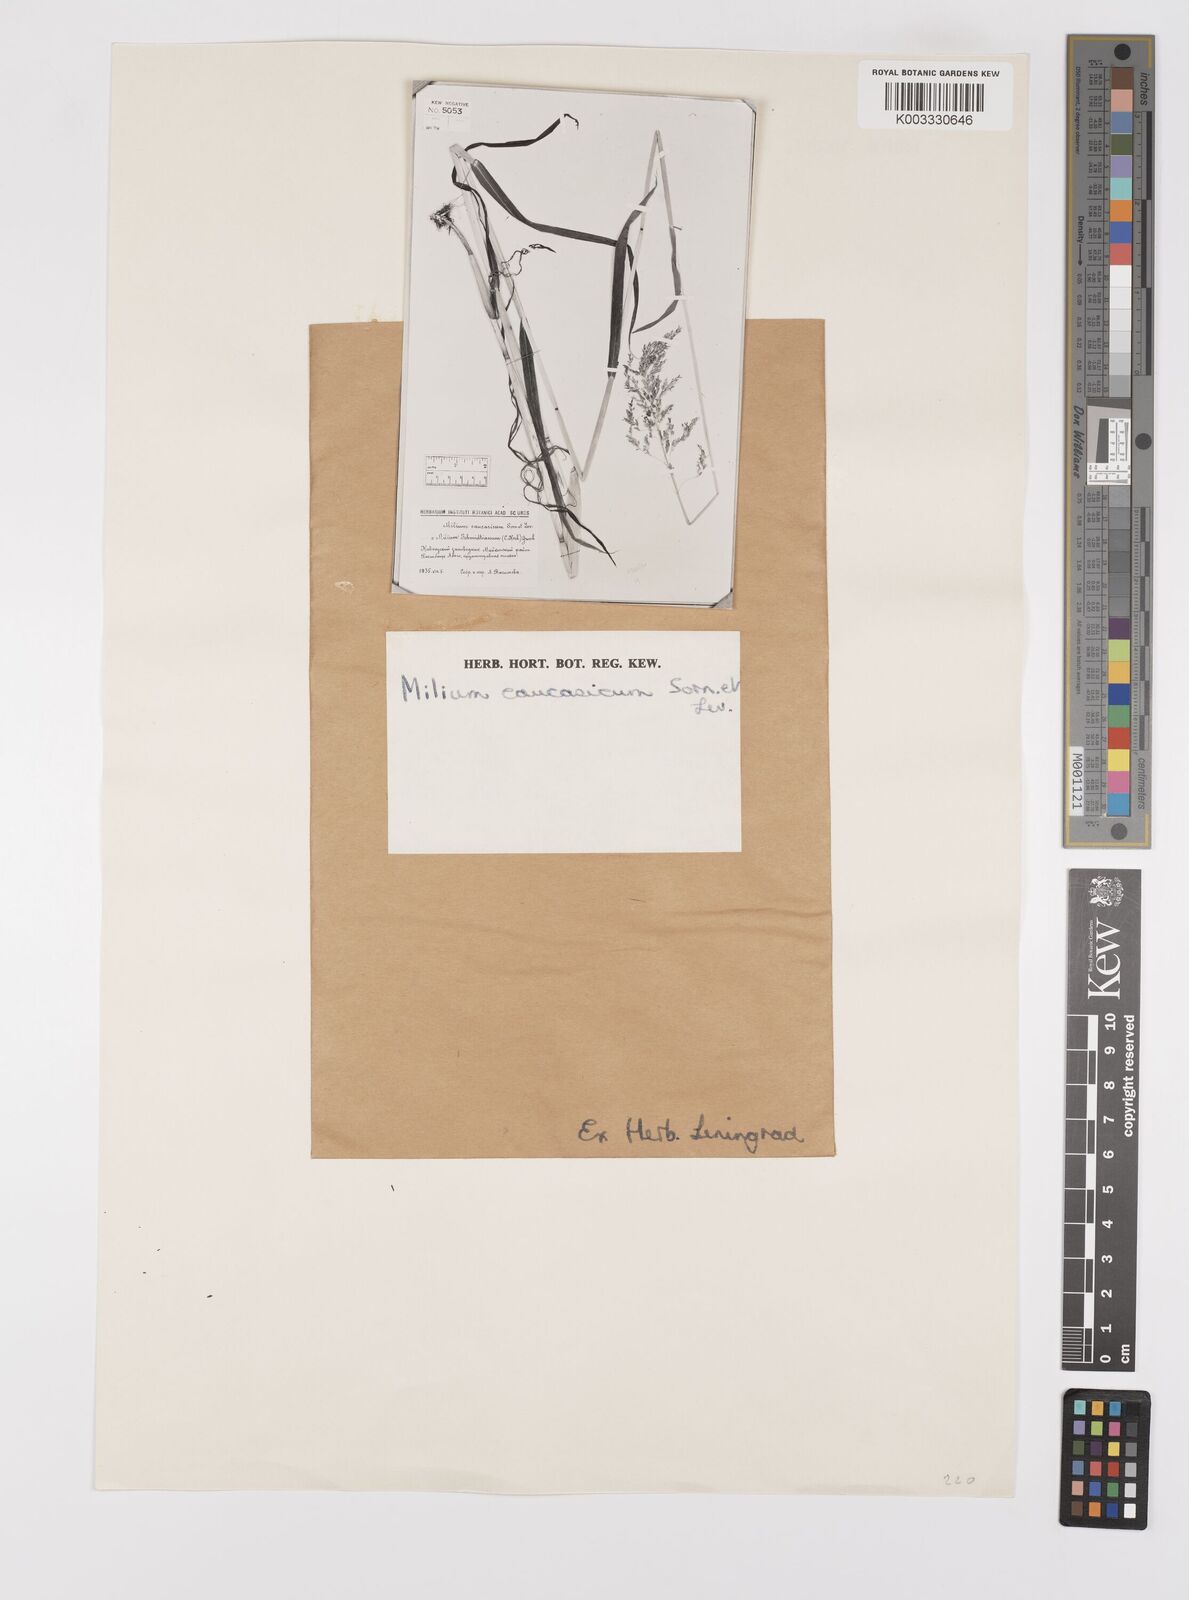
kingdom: Plantae
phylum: Tracheophyta
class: Liliopsida
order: Poales
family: Poaceae
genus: Milium
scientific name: Milium effusum
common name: Wood millet
